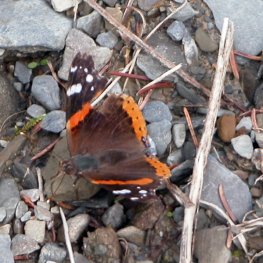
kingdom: Animalia
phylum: Arthropoda
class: Insecta
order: Lepidoptera
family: Nymphalidae
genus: Vanessa
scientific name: Vanessa atalanta
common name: Red Admiral
